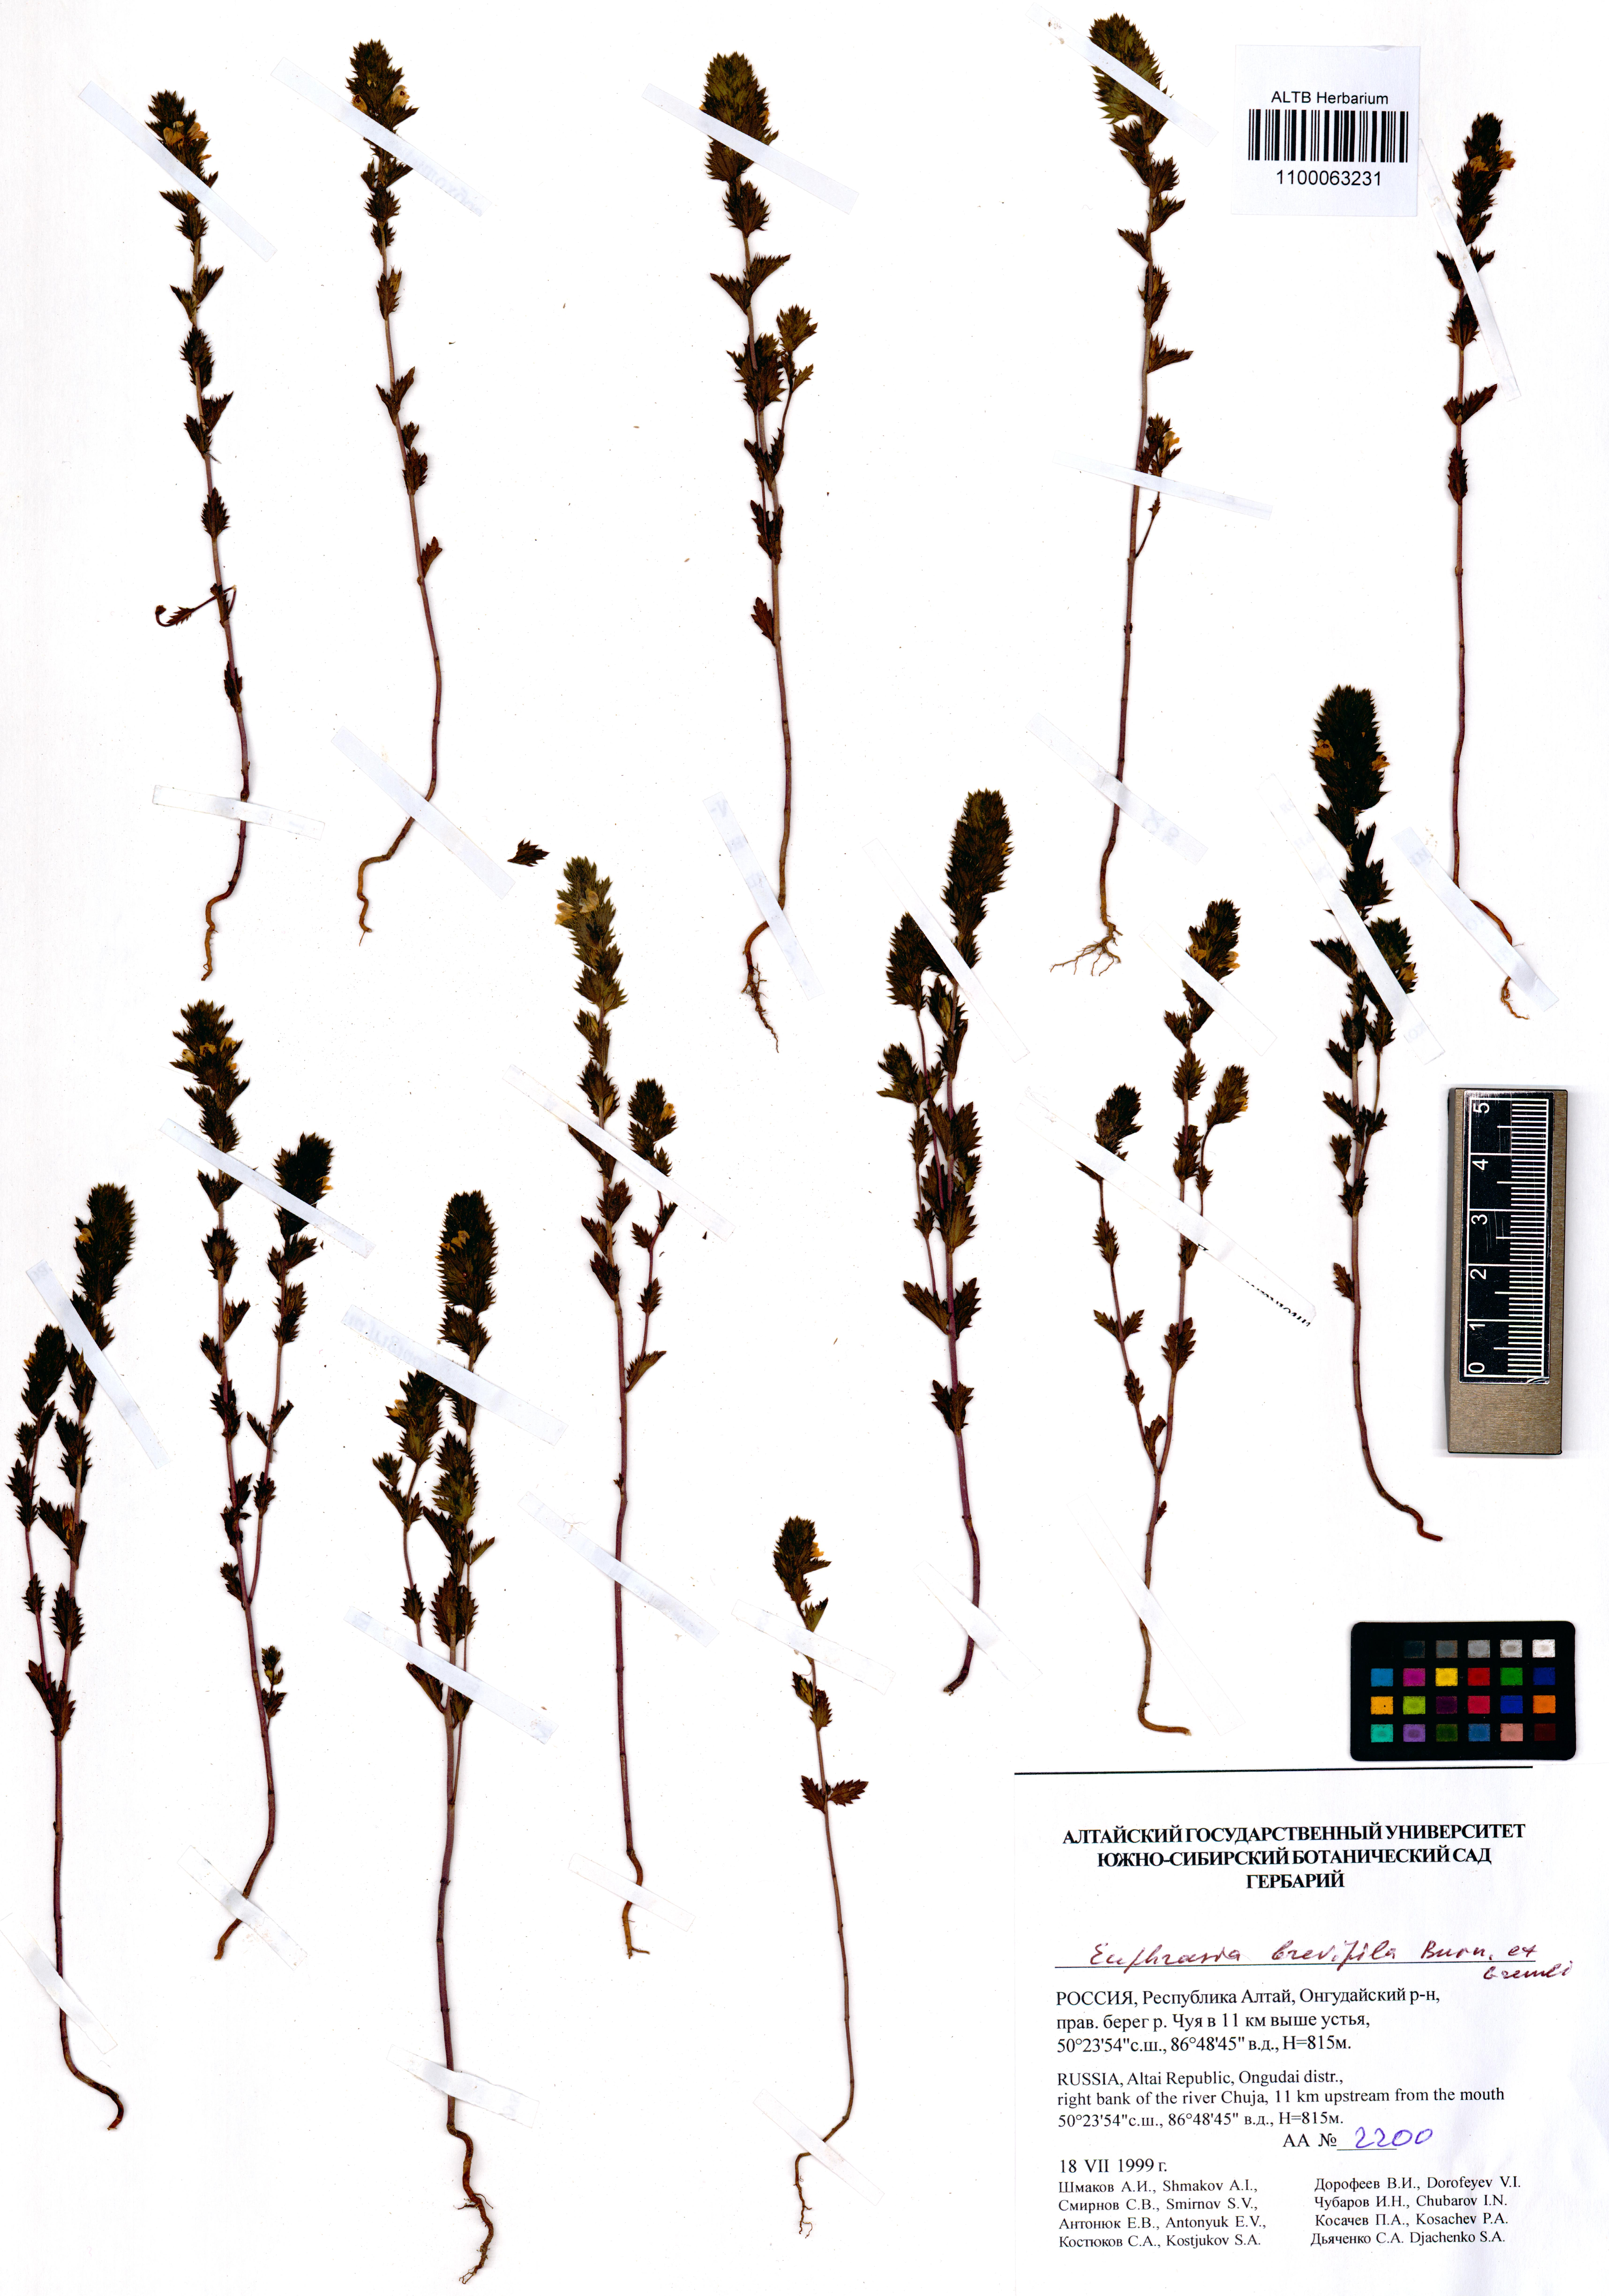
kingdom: Plantae
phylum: Tracheophyta
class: Magnoliopsida
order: Lamiales
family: Orobanchaceae
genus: Euphrasia
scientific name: Euphrasia vernalis
